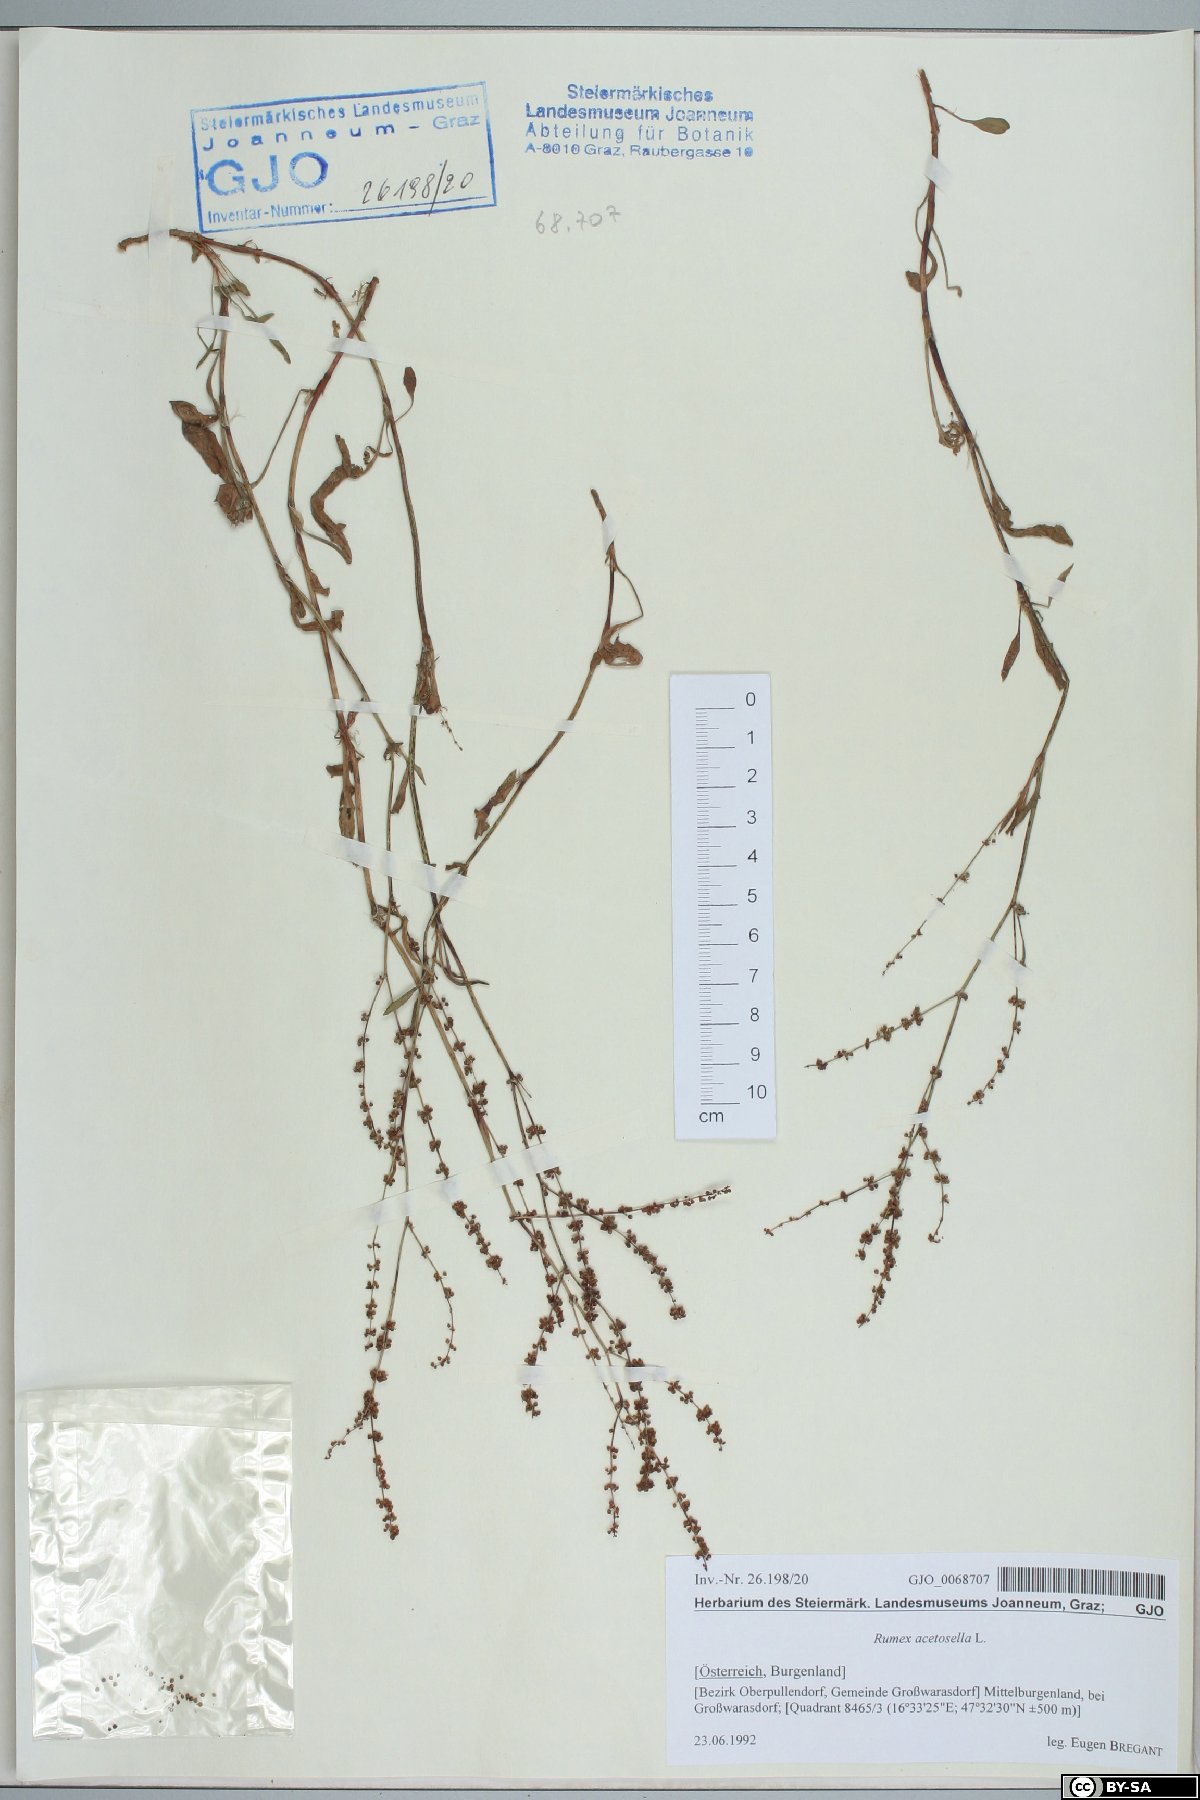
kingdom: Plantae
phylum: Tracheophyta
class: Magnoliopsida
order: Caryophyllales
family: Polygonaceae
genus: Rumex
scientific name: Rumex acetosella
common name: Common sheep sorrel
